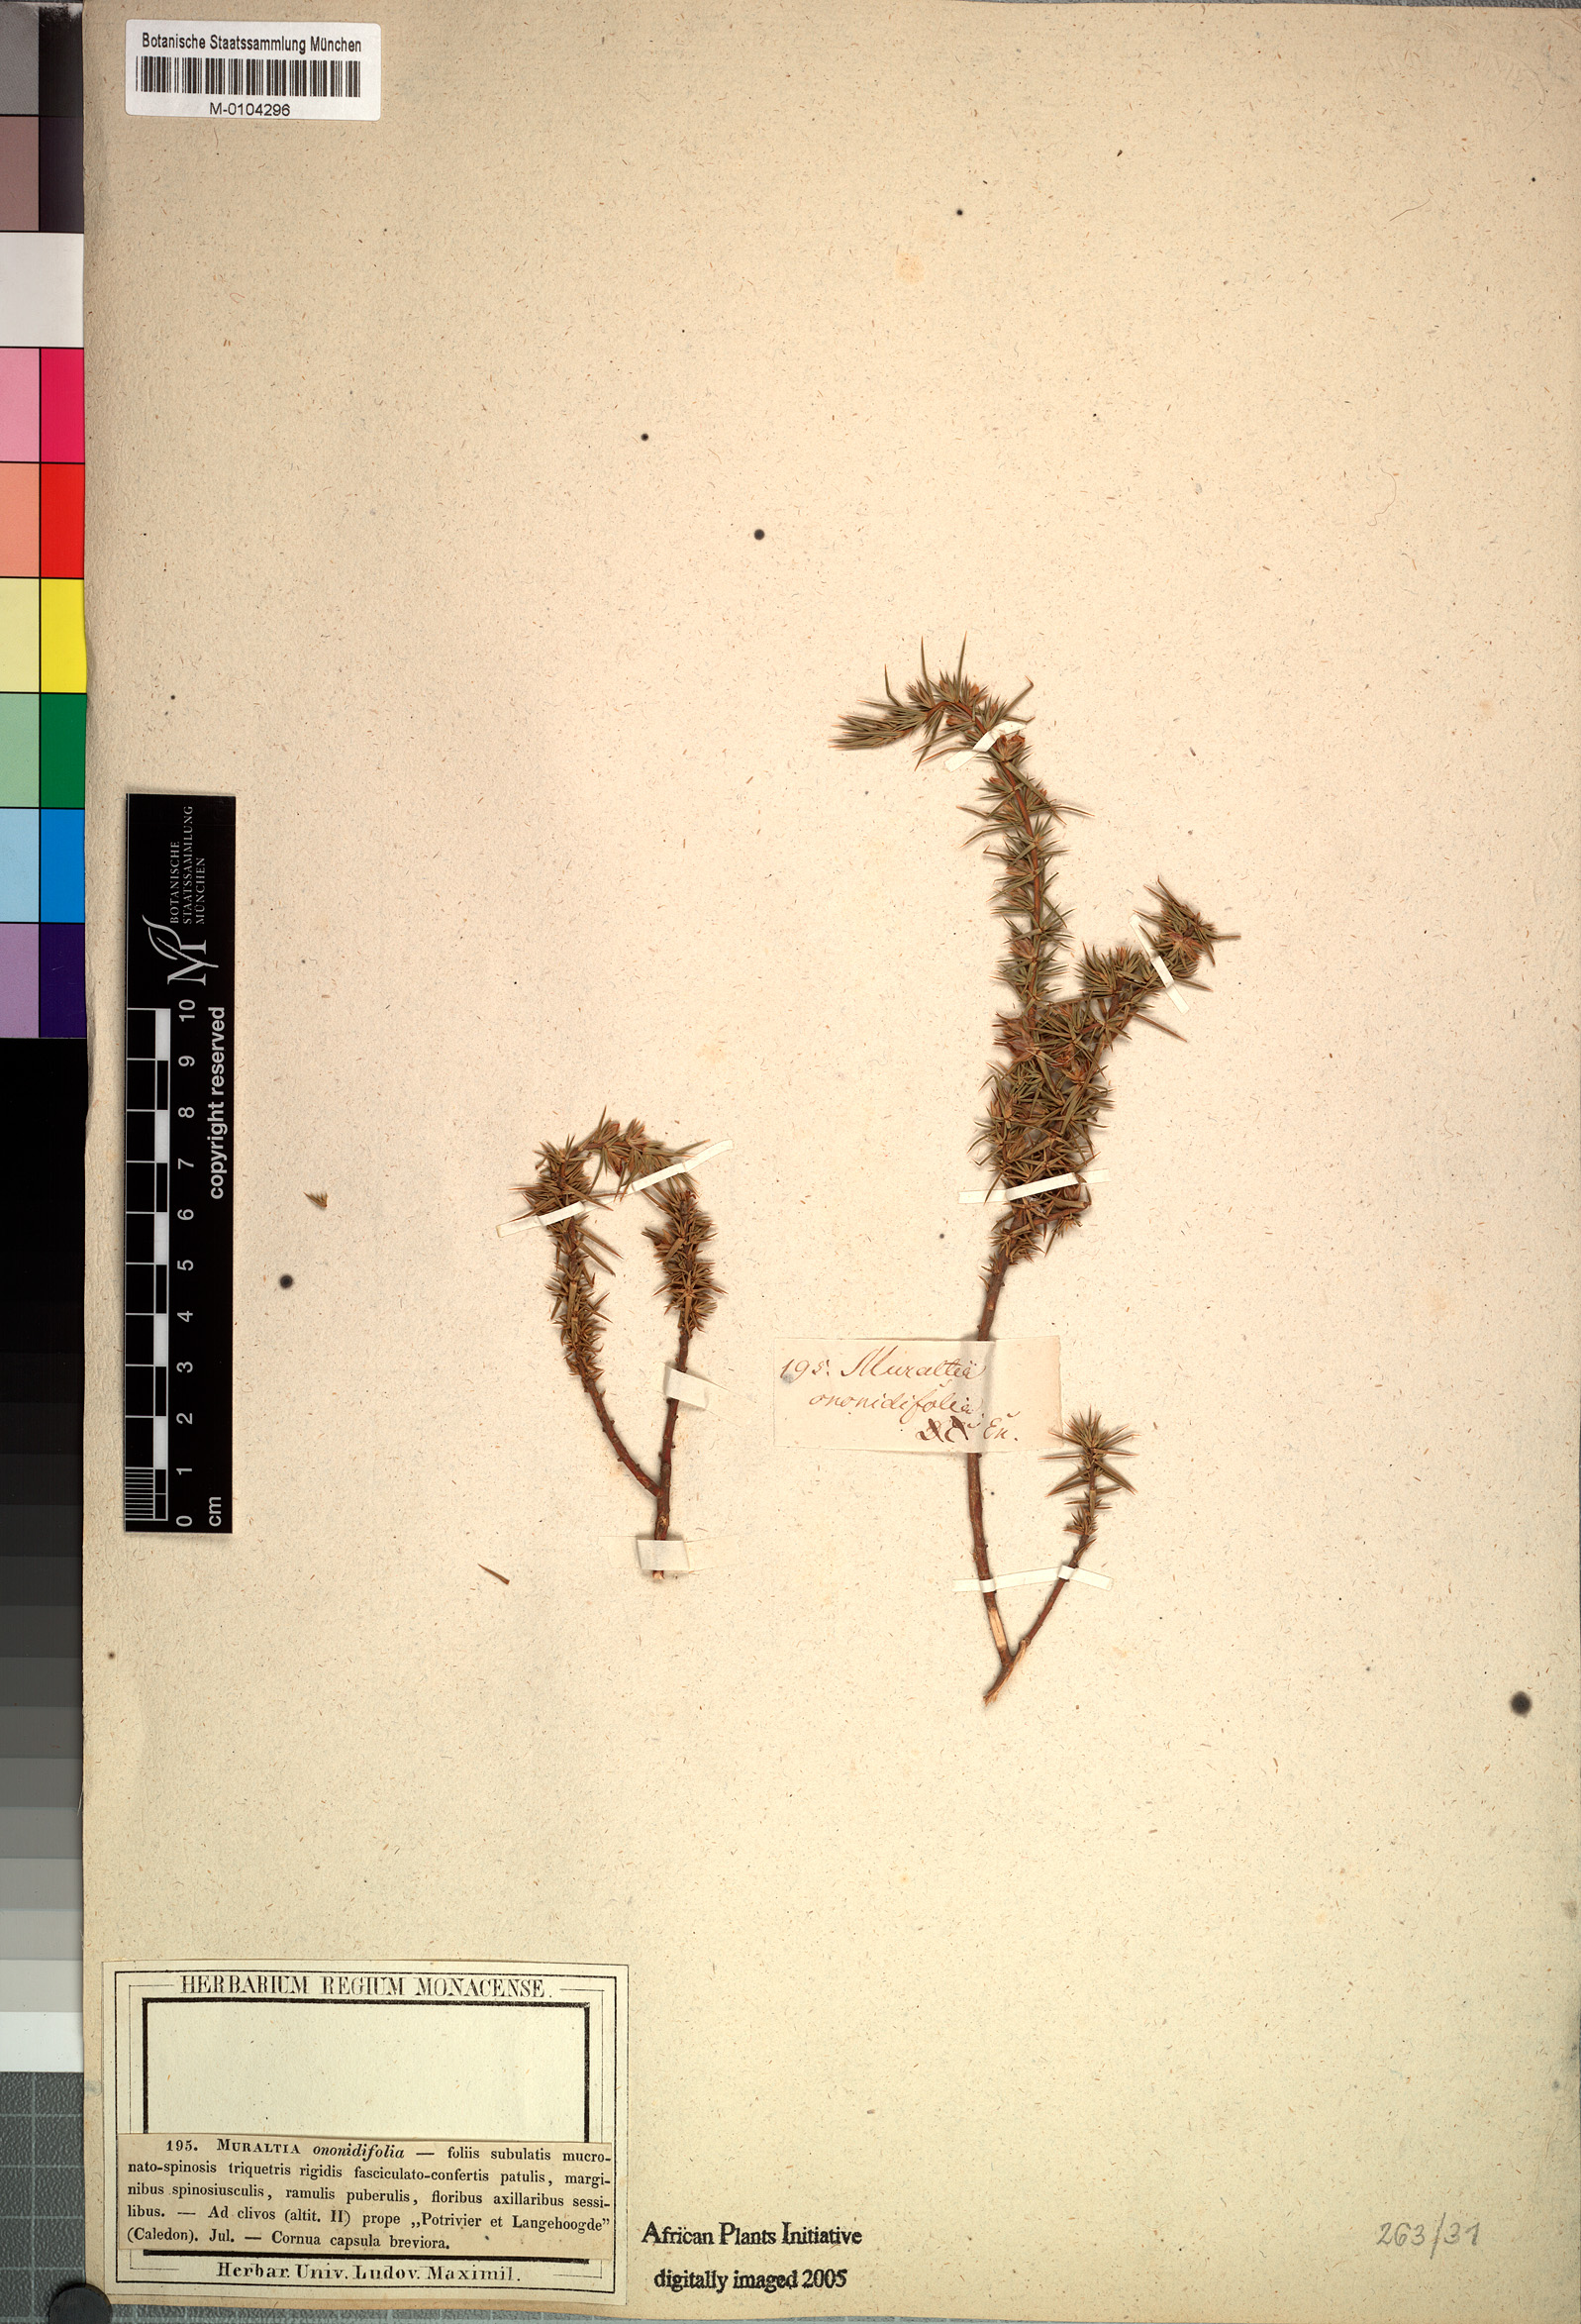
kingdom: Plantae
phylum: Tracheophyta
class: Magnoliopsida
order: Fabales
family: Polygalaceae
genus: Muraltia
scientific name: Muraltia ononidifolia
